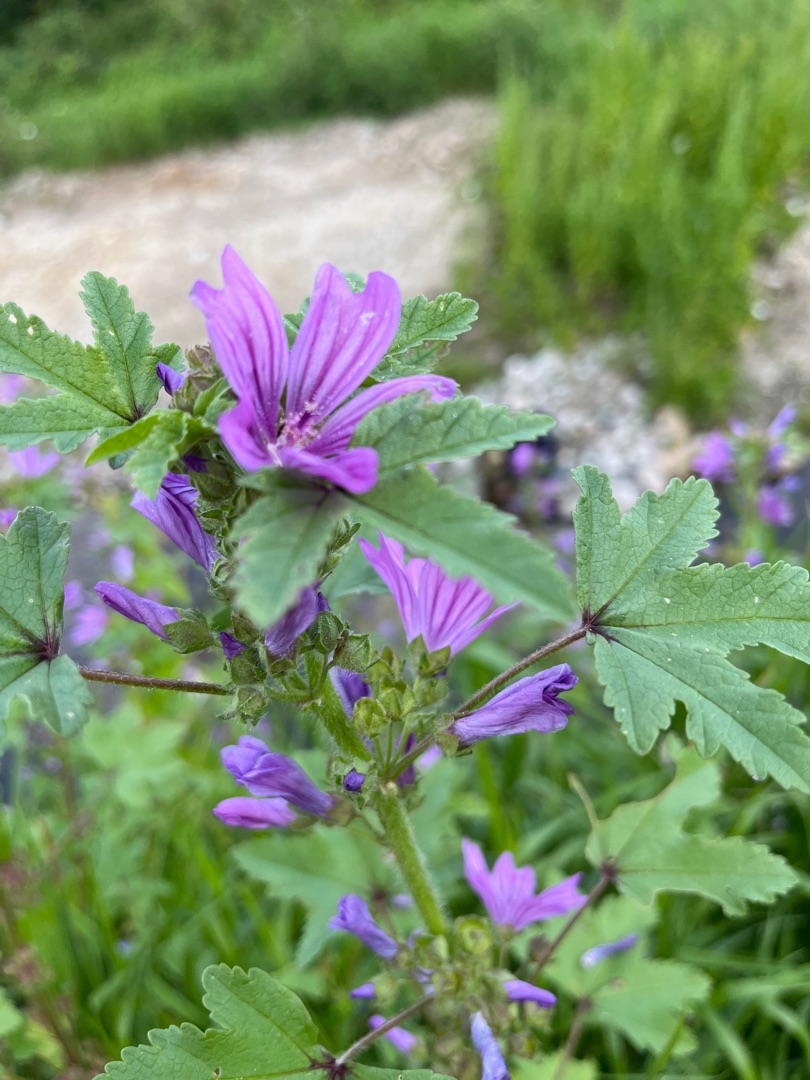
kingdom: Plantae
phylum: Tracheophyta
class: Magnoliopsida
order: Malvales
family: Malvaceae
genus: Malva
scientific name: Malva sylvestris
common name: Almindelig katost
